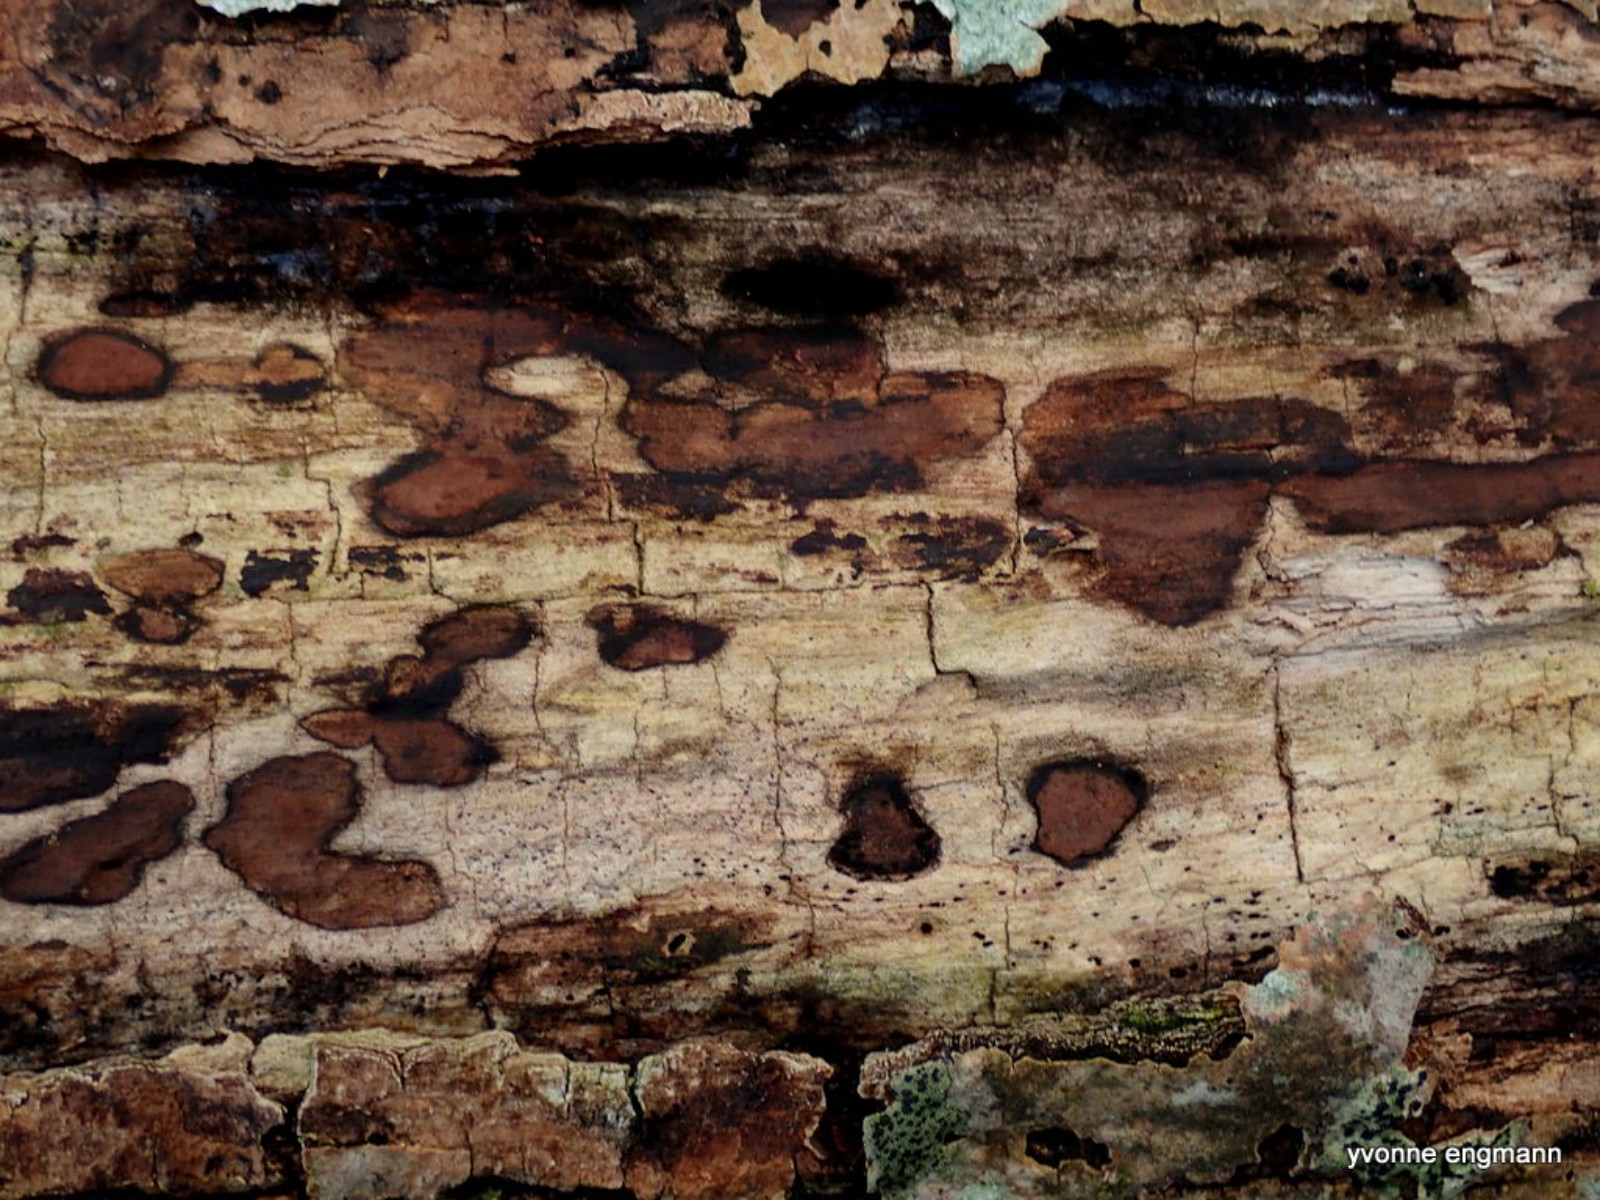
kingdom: Fungi
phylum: Ascomycota
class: Sordariomycetes
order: Xylariales
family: Hypoxylaceae
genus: Hypoxylon
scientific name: Hypoxylon petriniae
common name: nedsænket kulbær
